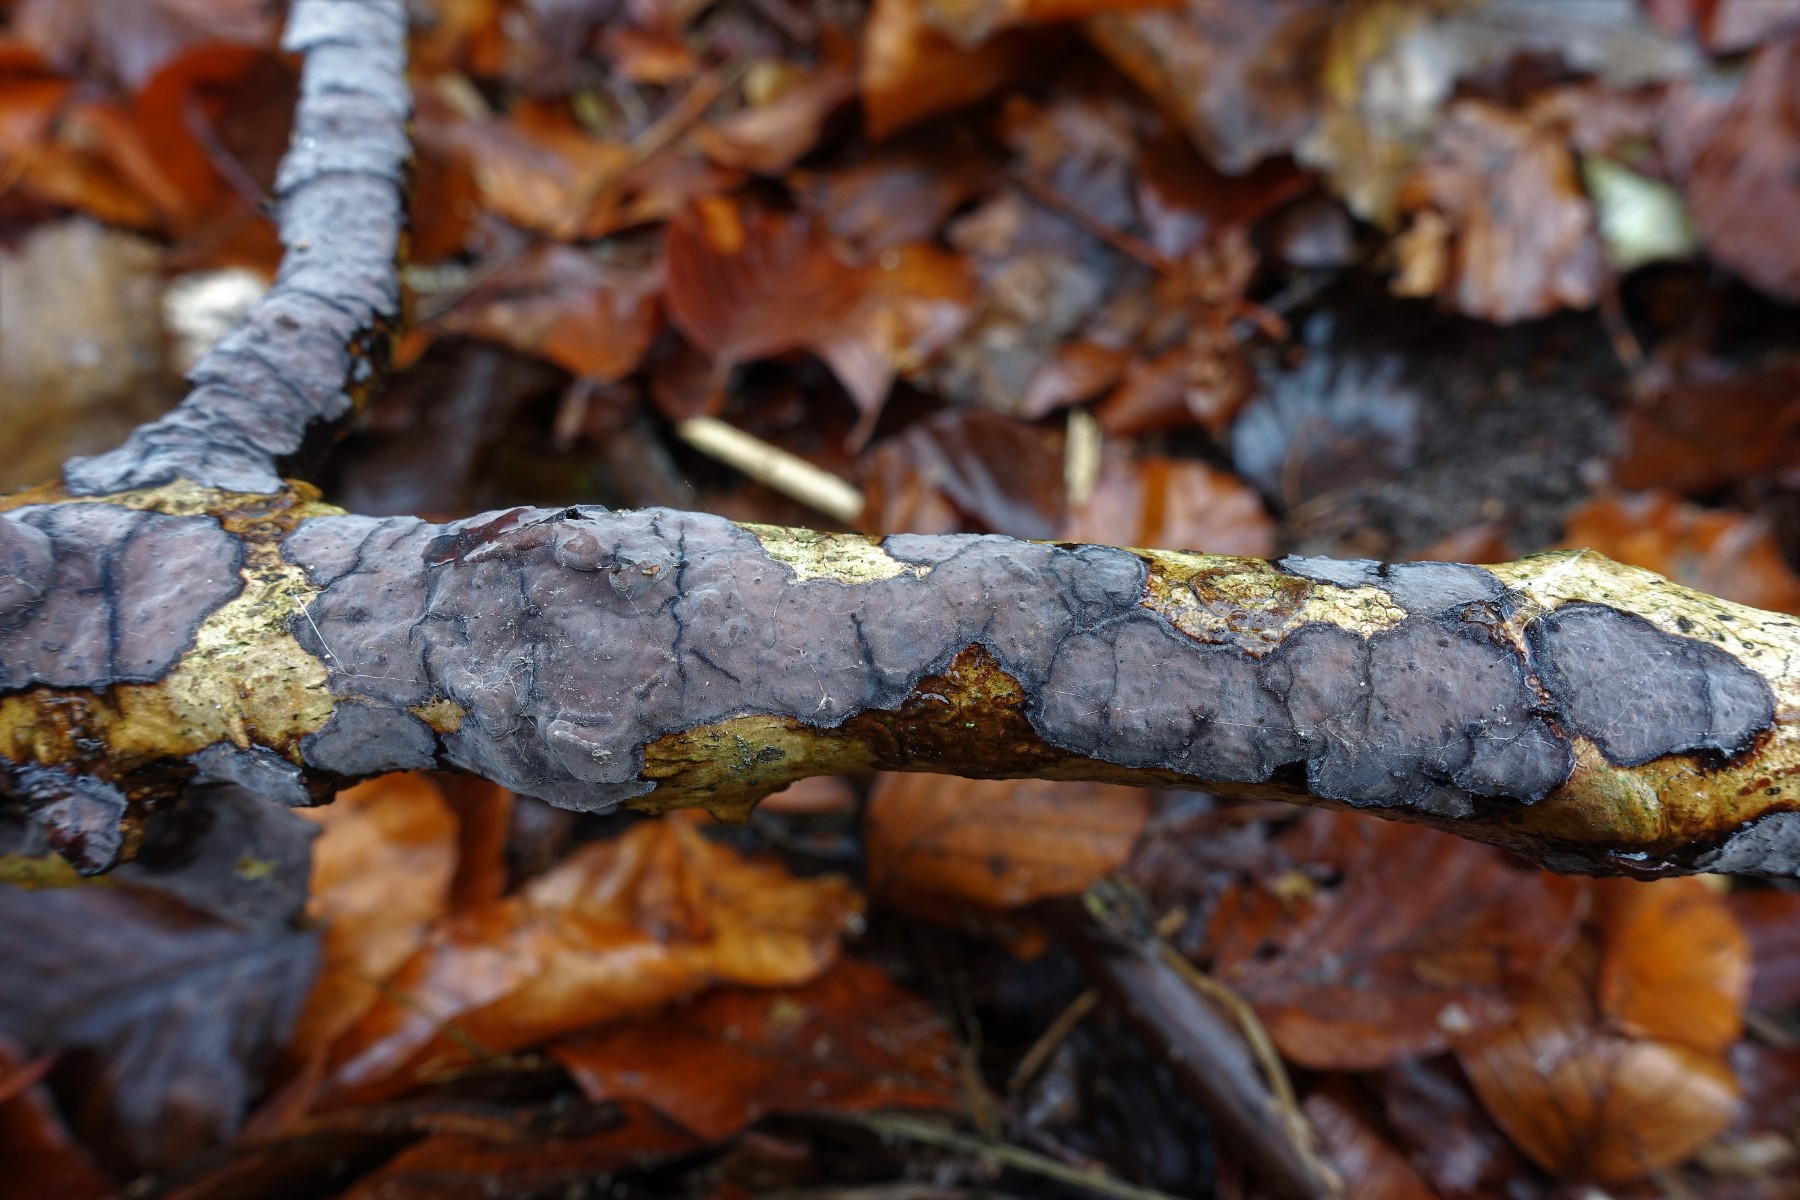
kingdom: Fungi
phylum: Basidiomycota
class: Agaricomycetes
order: Russulales
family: Peniophoraceae
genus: Peniophora
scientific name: Peniophora limitata
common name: mørkrandet voksskind
